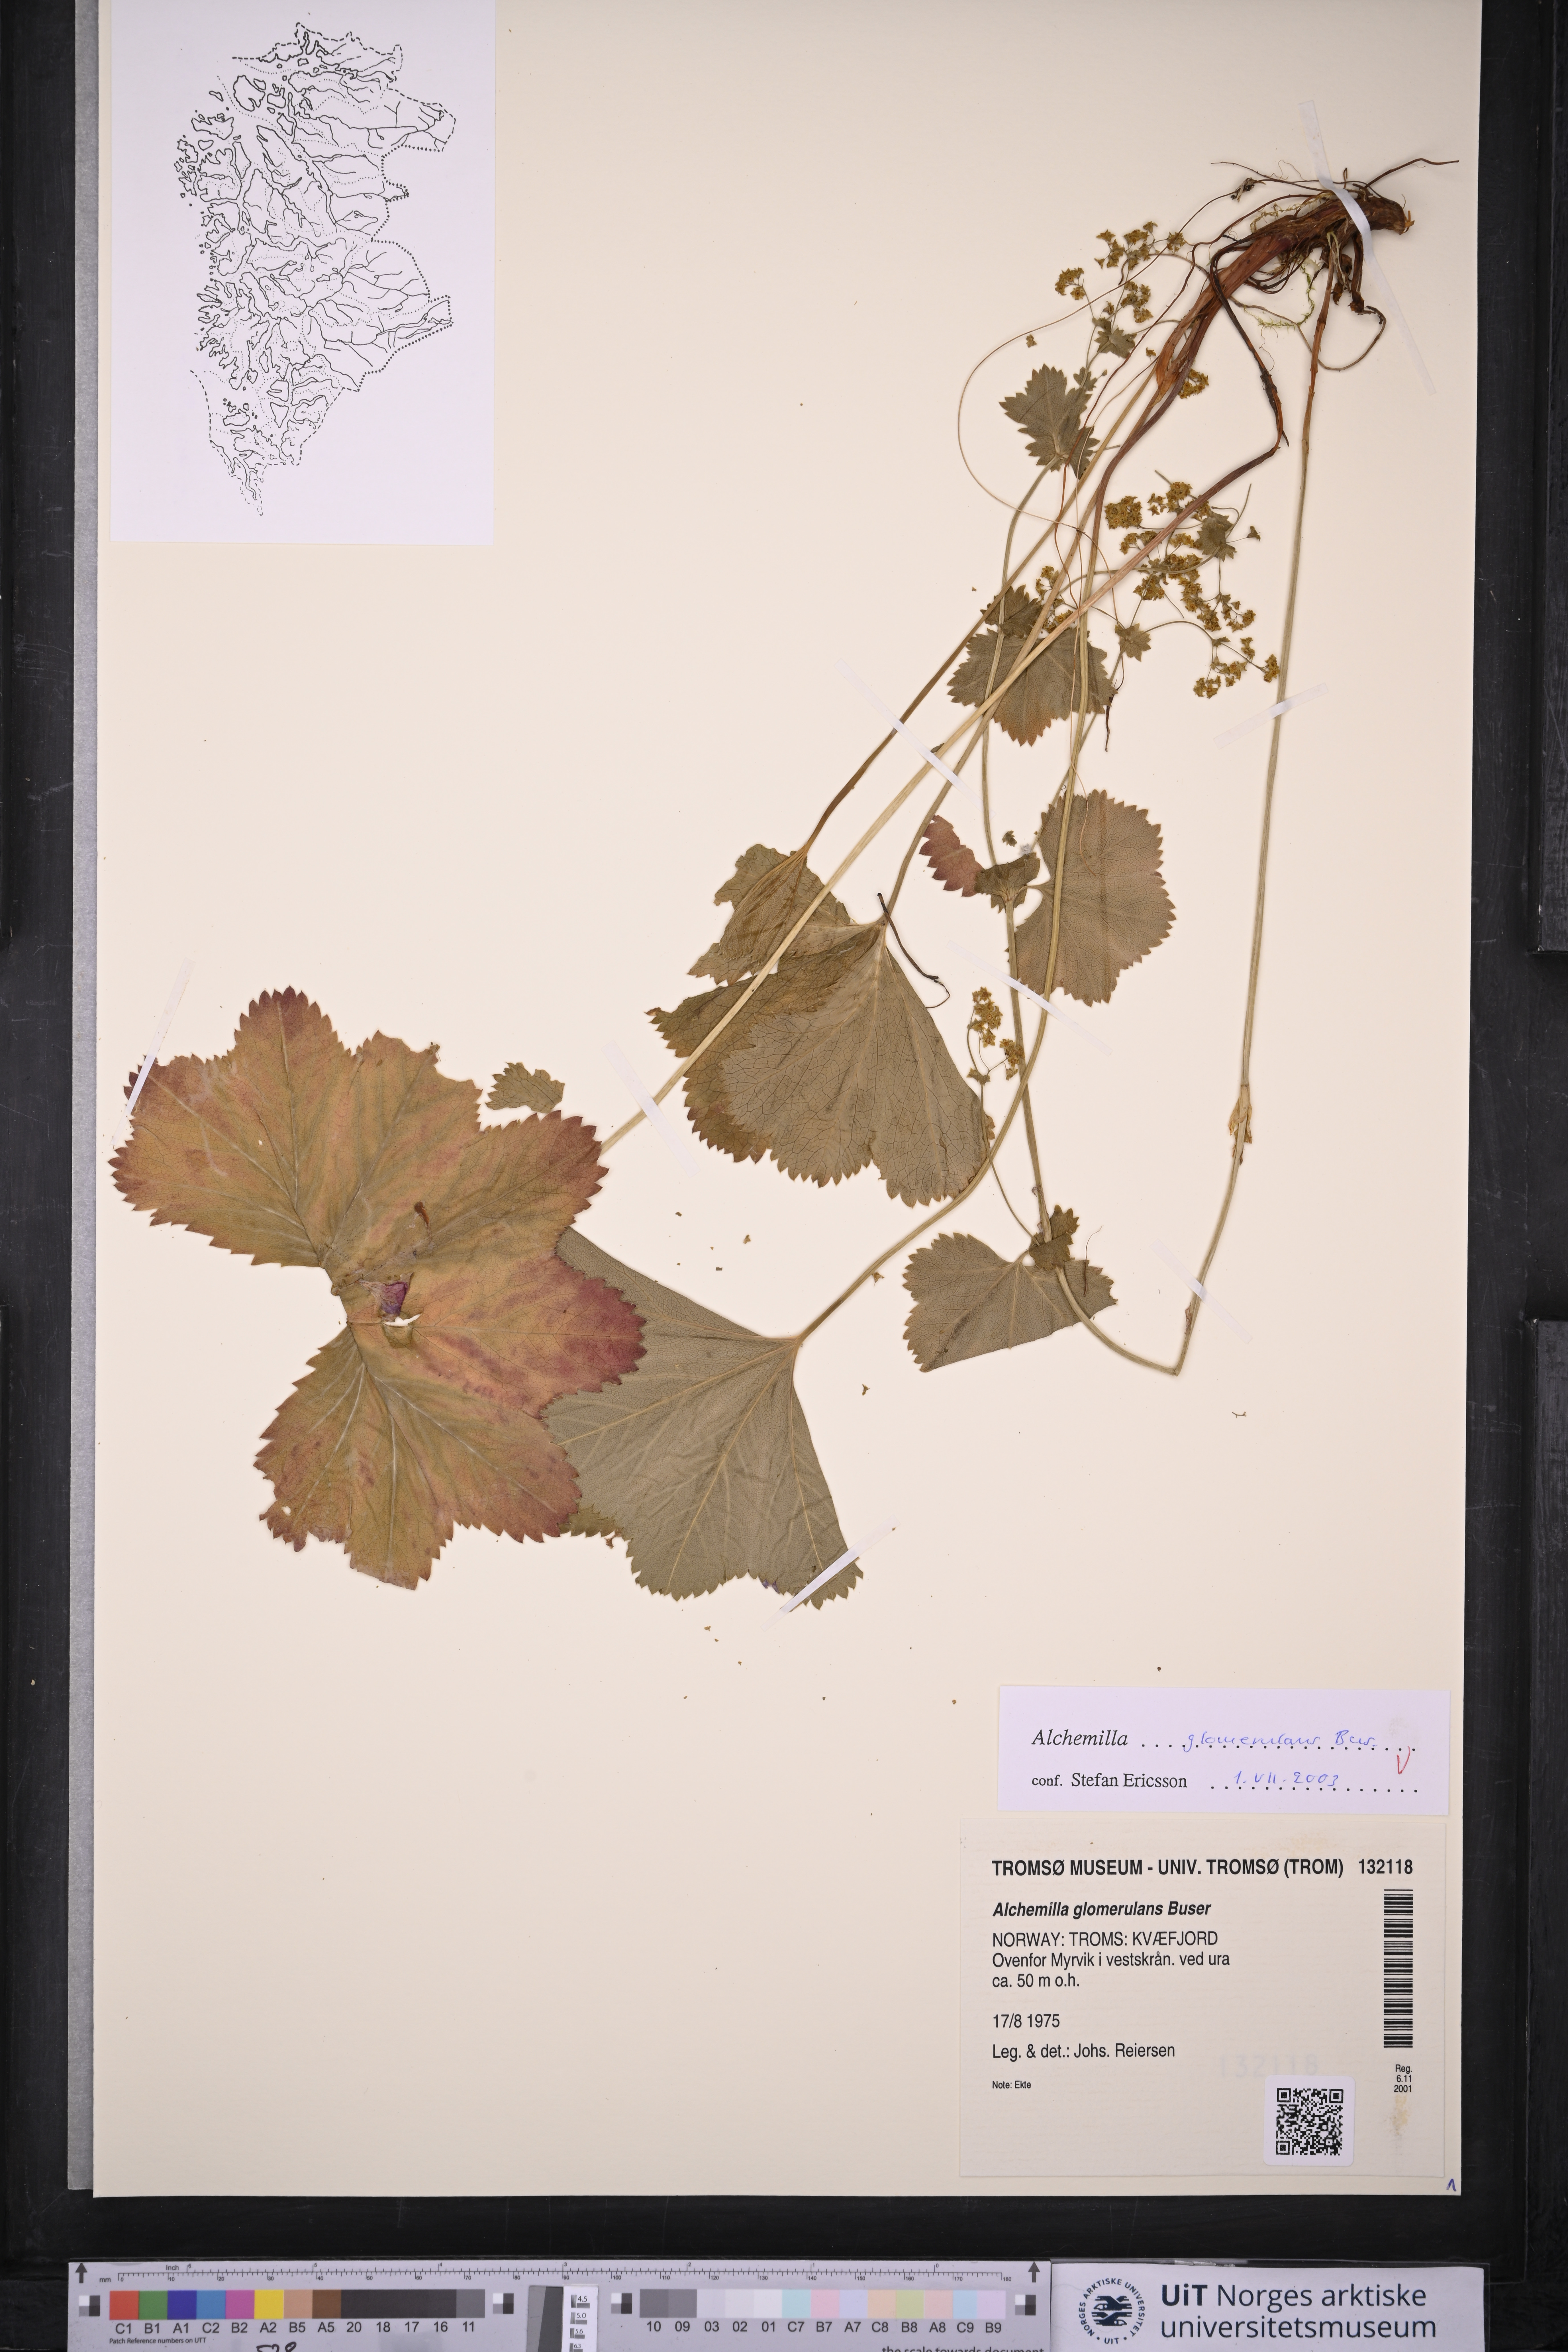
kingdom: Plantae
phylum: Tracheophyta
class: Magnoliopsida
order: Rosales
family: Rosaceae
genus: Alchemilla
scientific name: Alchemilla glomerulans
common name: Clustered lady's mantle
